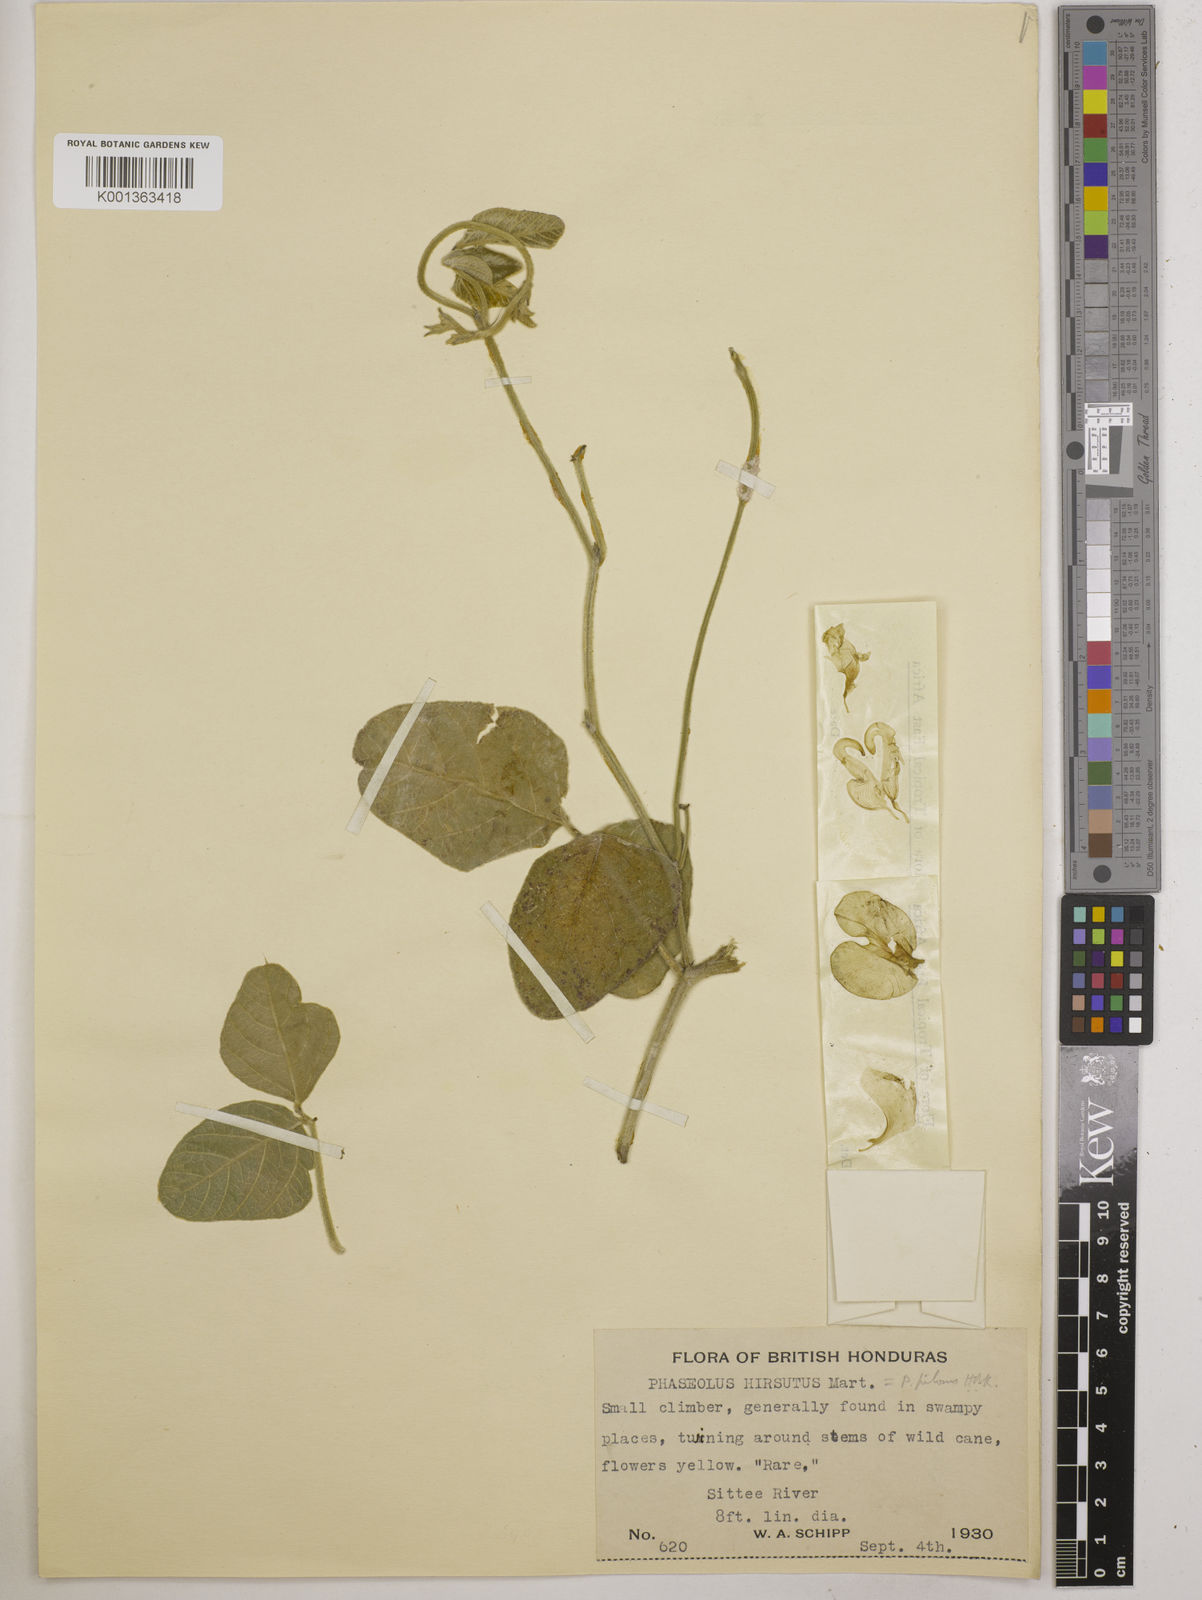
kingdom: Plantae
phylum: Tracheophyta
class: Magnoliopsida
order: Fabales
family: Fabaceae
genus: Vigna
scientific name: Vigna lasiocarpa
